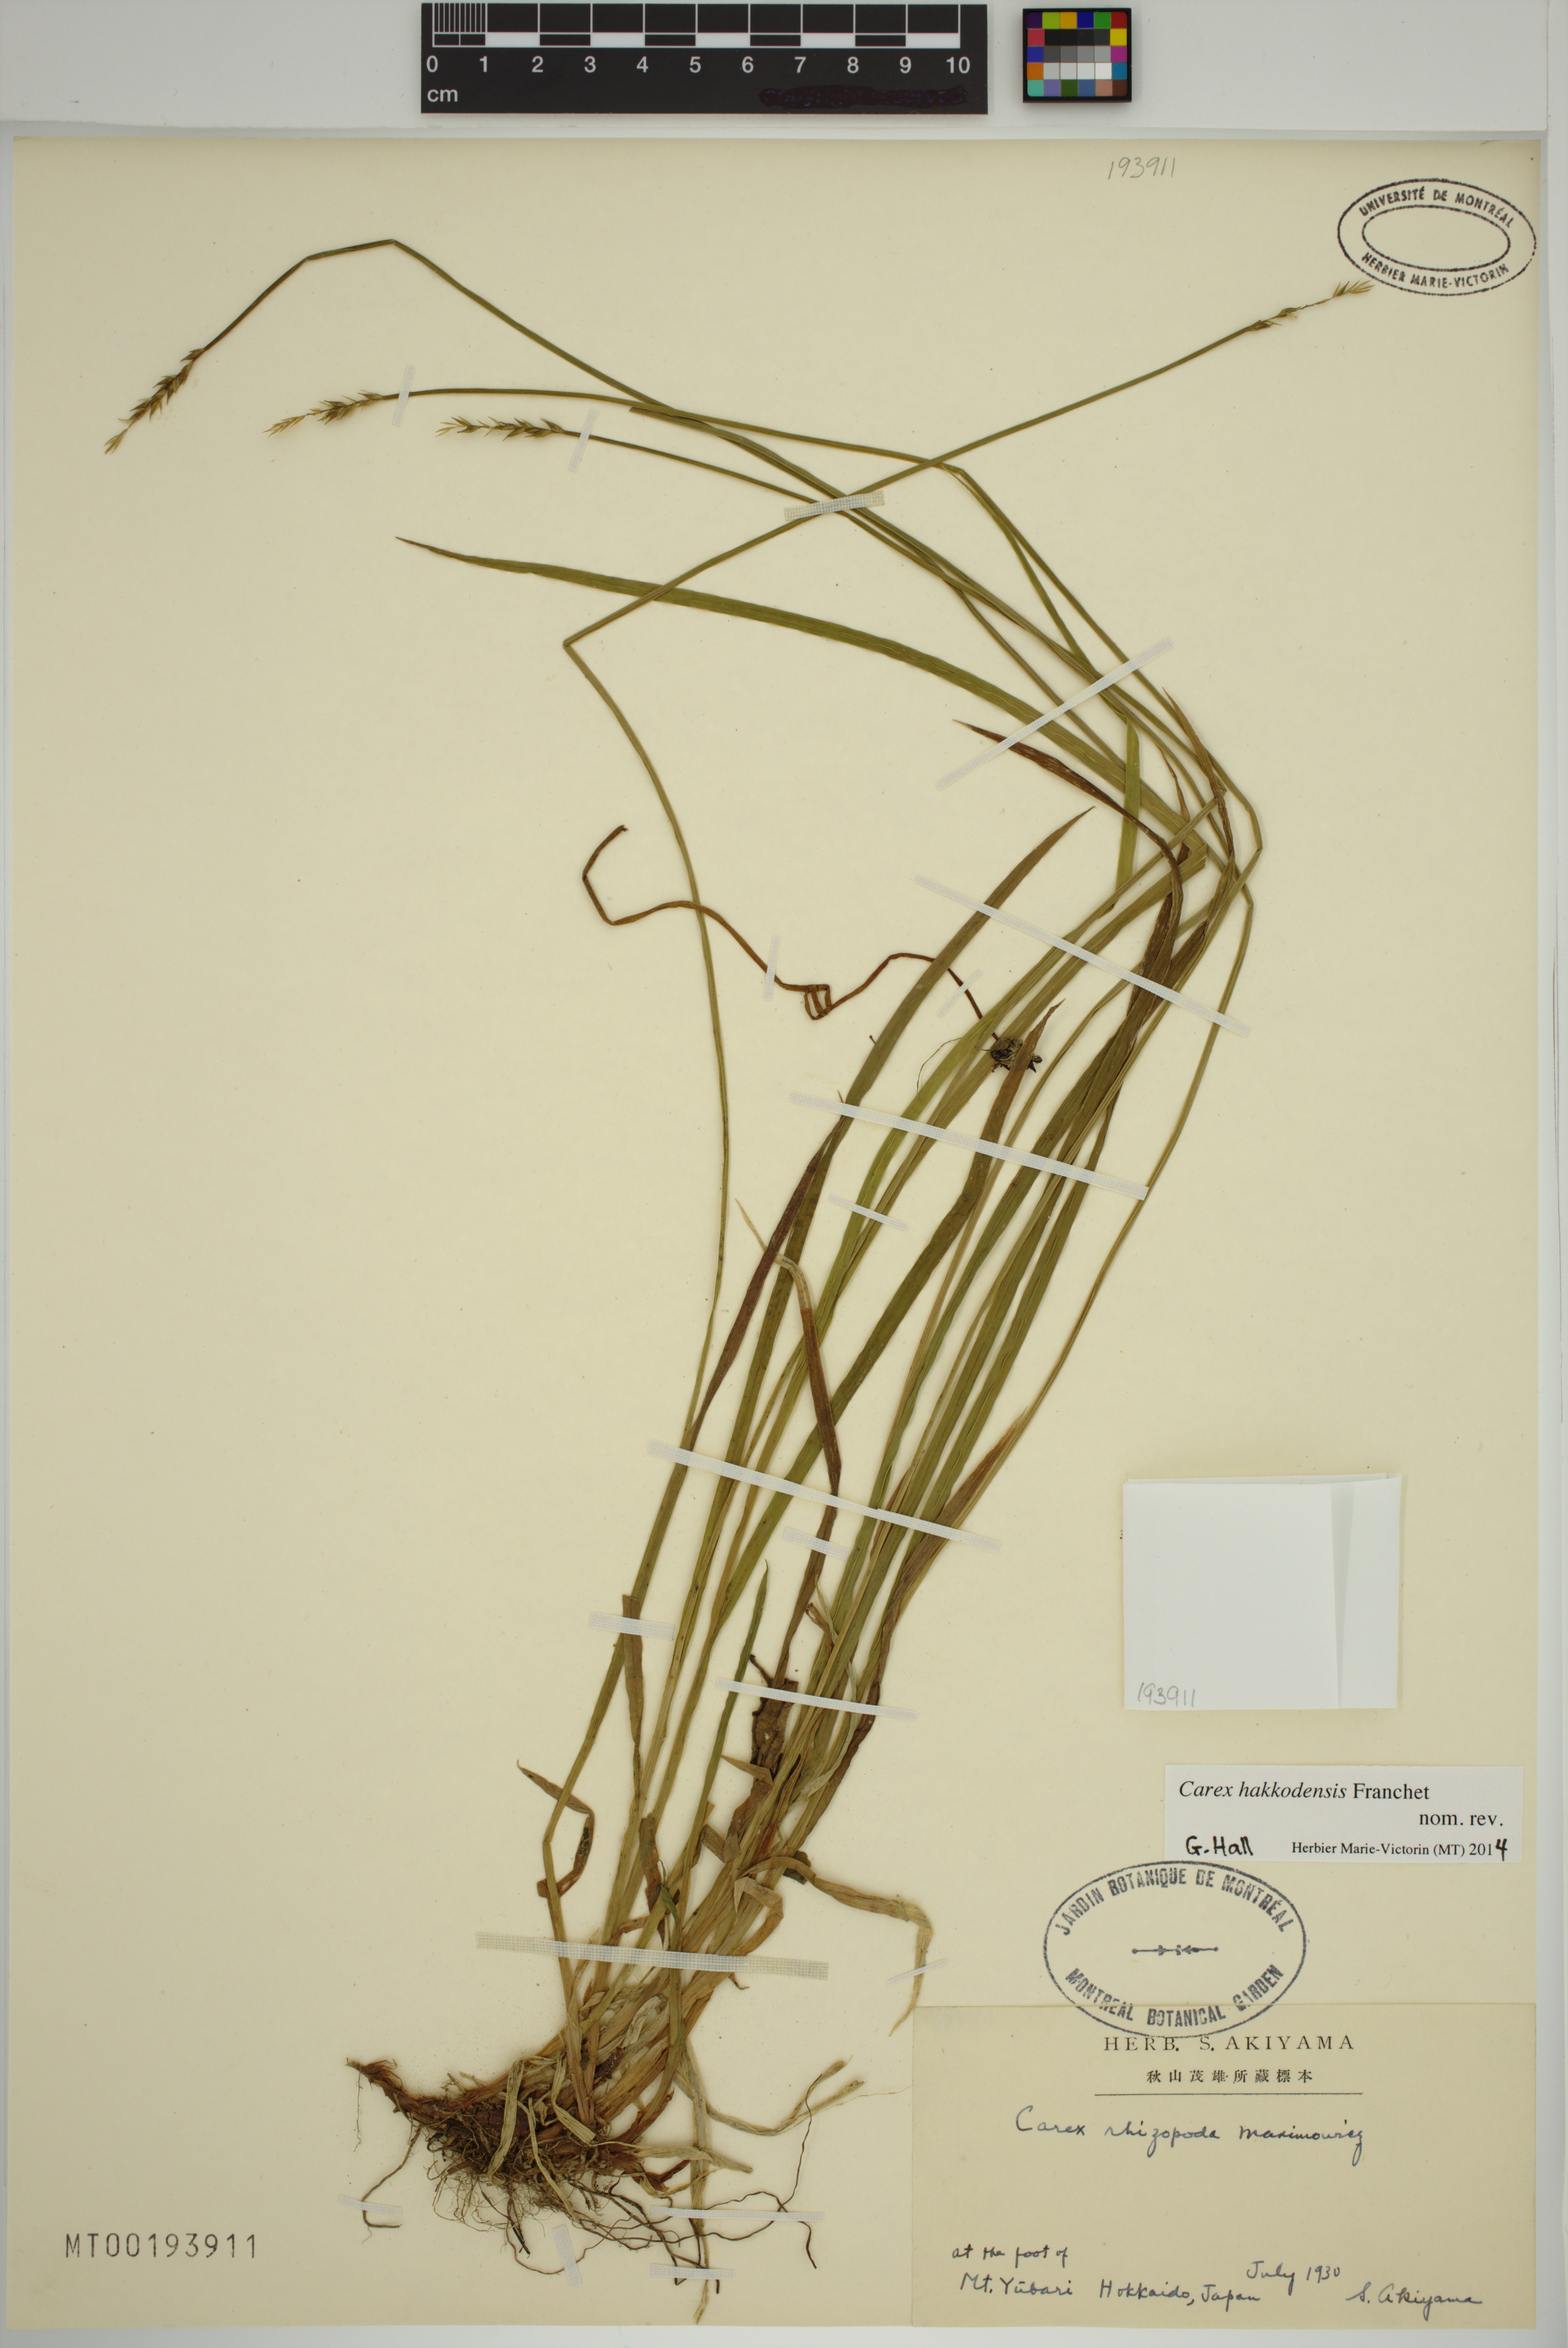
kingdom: Plantae
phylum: Tracheophyta
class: Liliopsida
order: Poales
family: Cyperaceae
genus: Carex
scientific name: Carex hakkodensis
